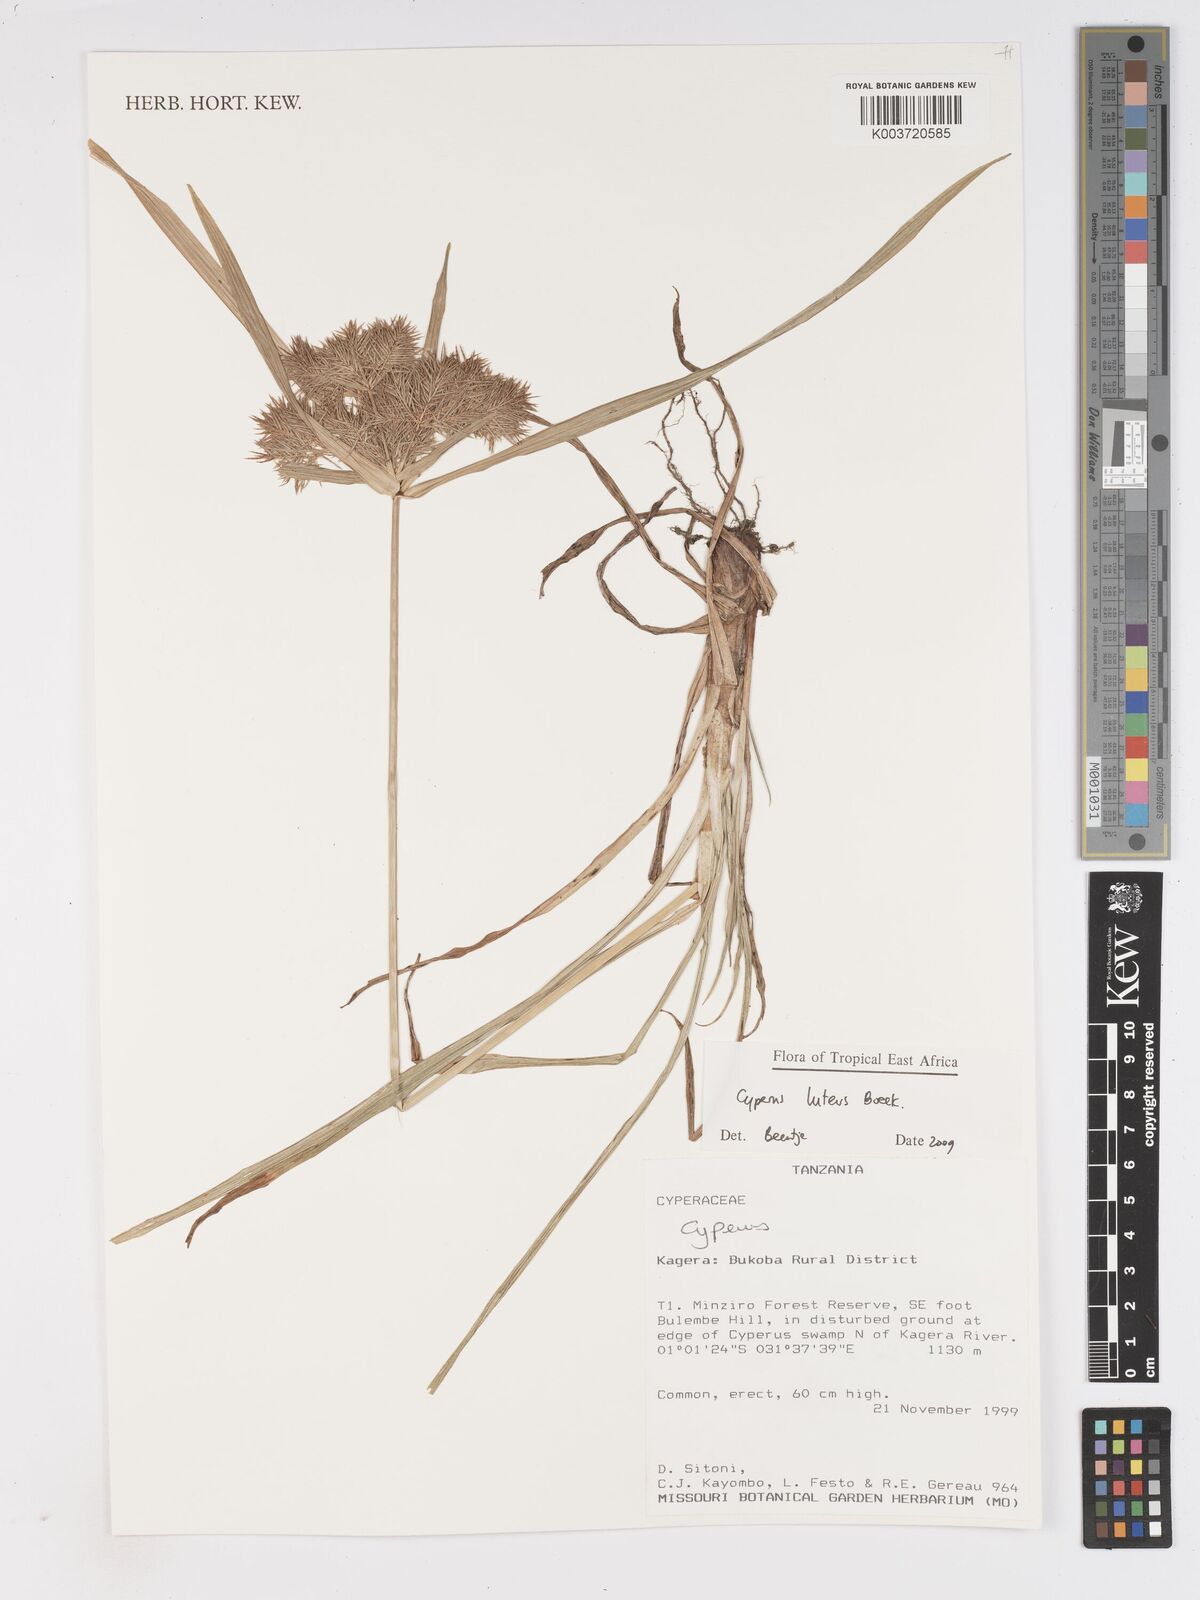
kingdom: Plantae
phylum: Tracheophyta
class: Liliopsida
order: Poales
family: Cyperaceae
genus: Cyperus
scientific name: Cyperus luteus
